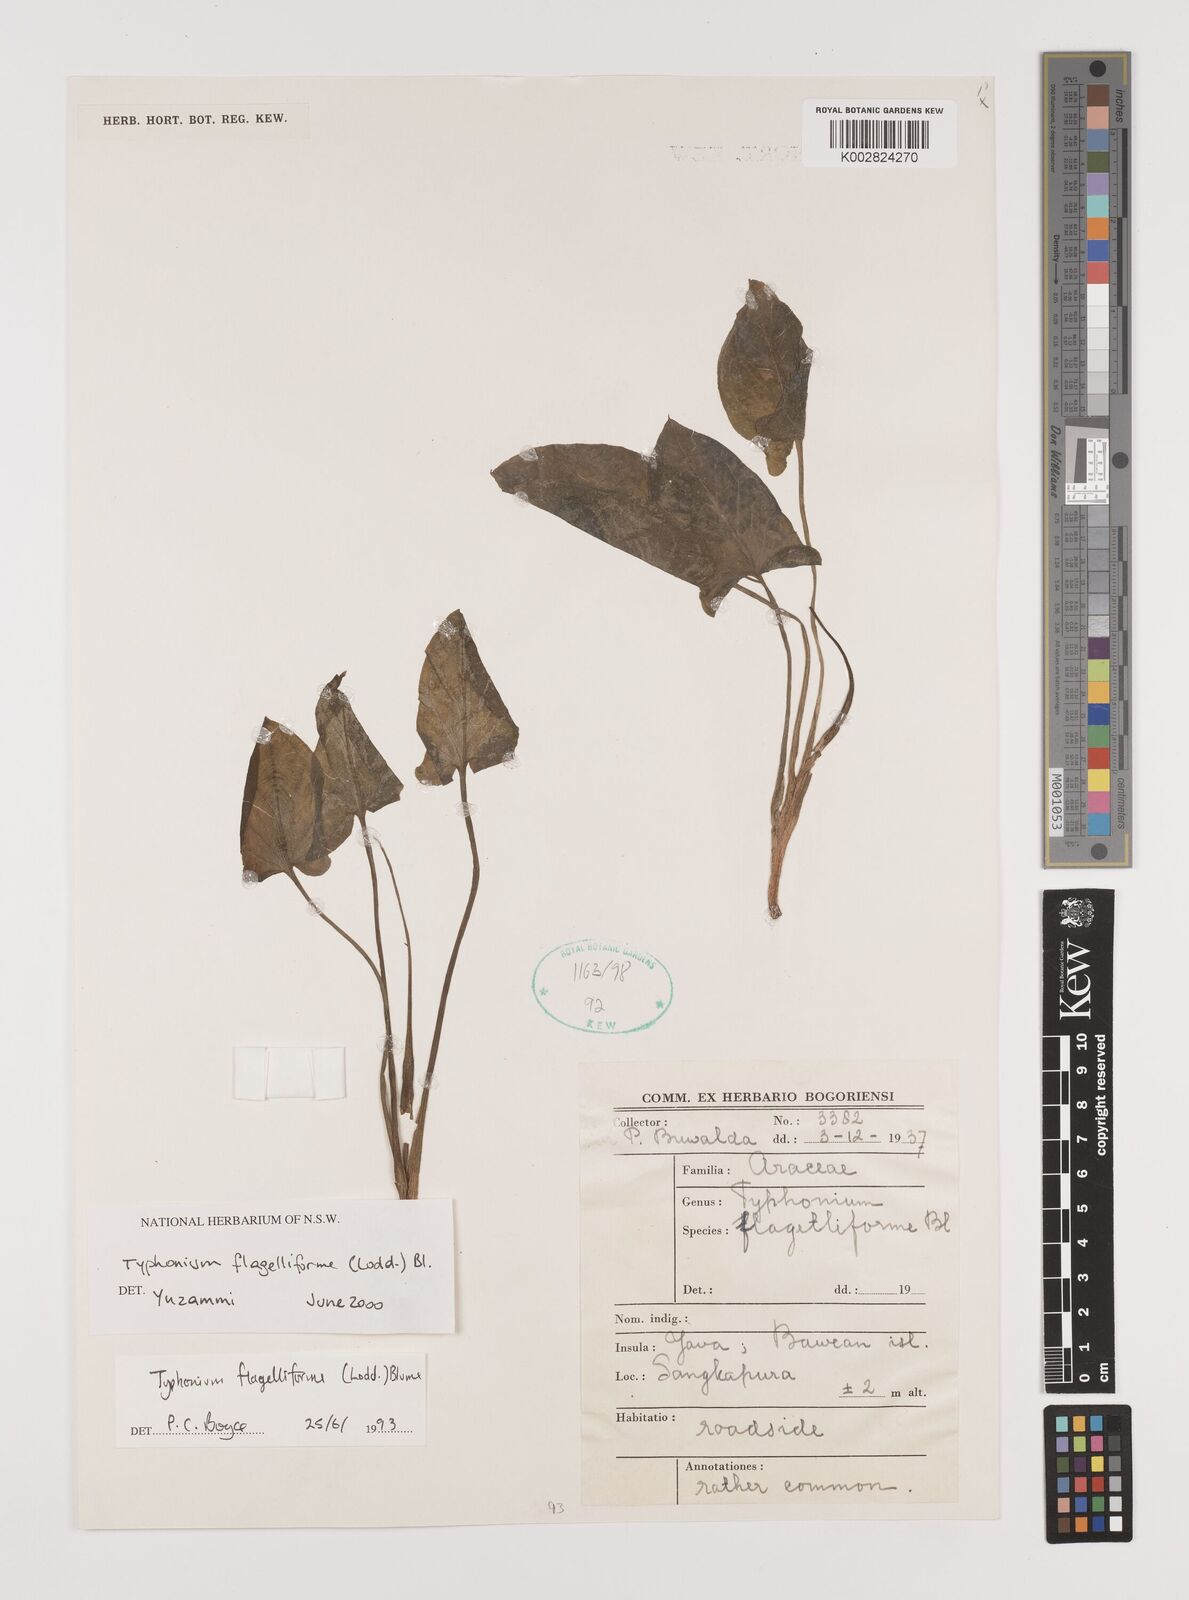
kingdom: Plantae
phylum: Tracheophyta
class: Liliopsida
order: Alismatales
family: Araceae
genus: Typhonium
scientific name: Typhonium flagelliforme
